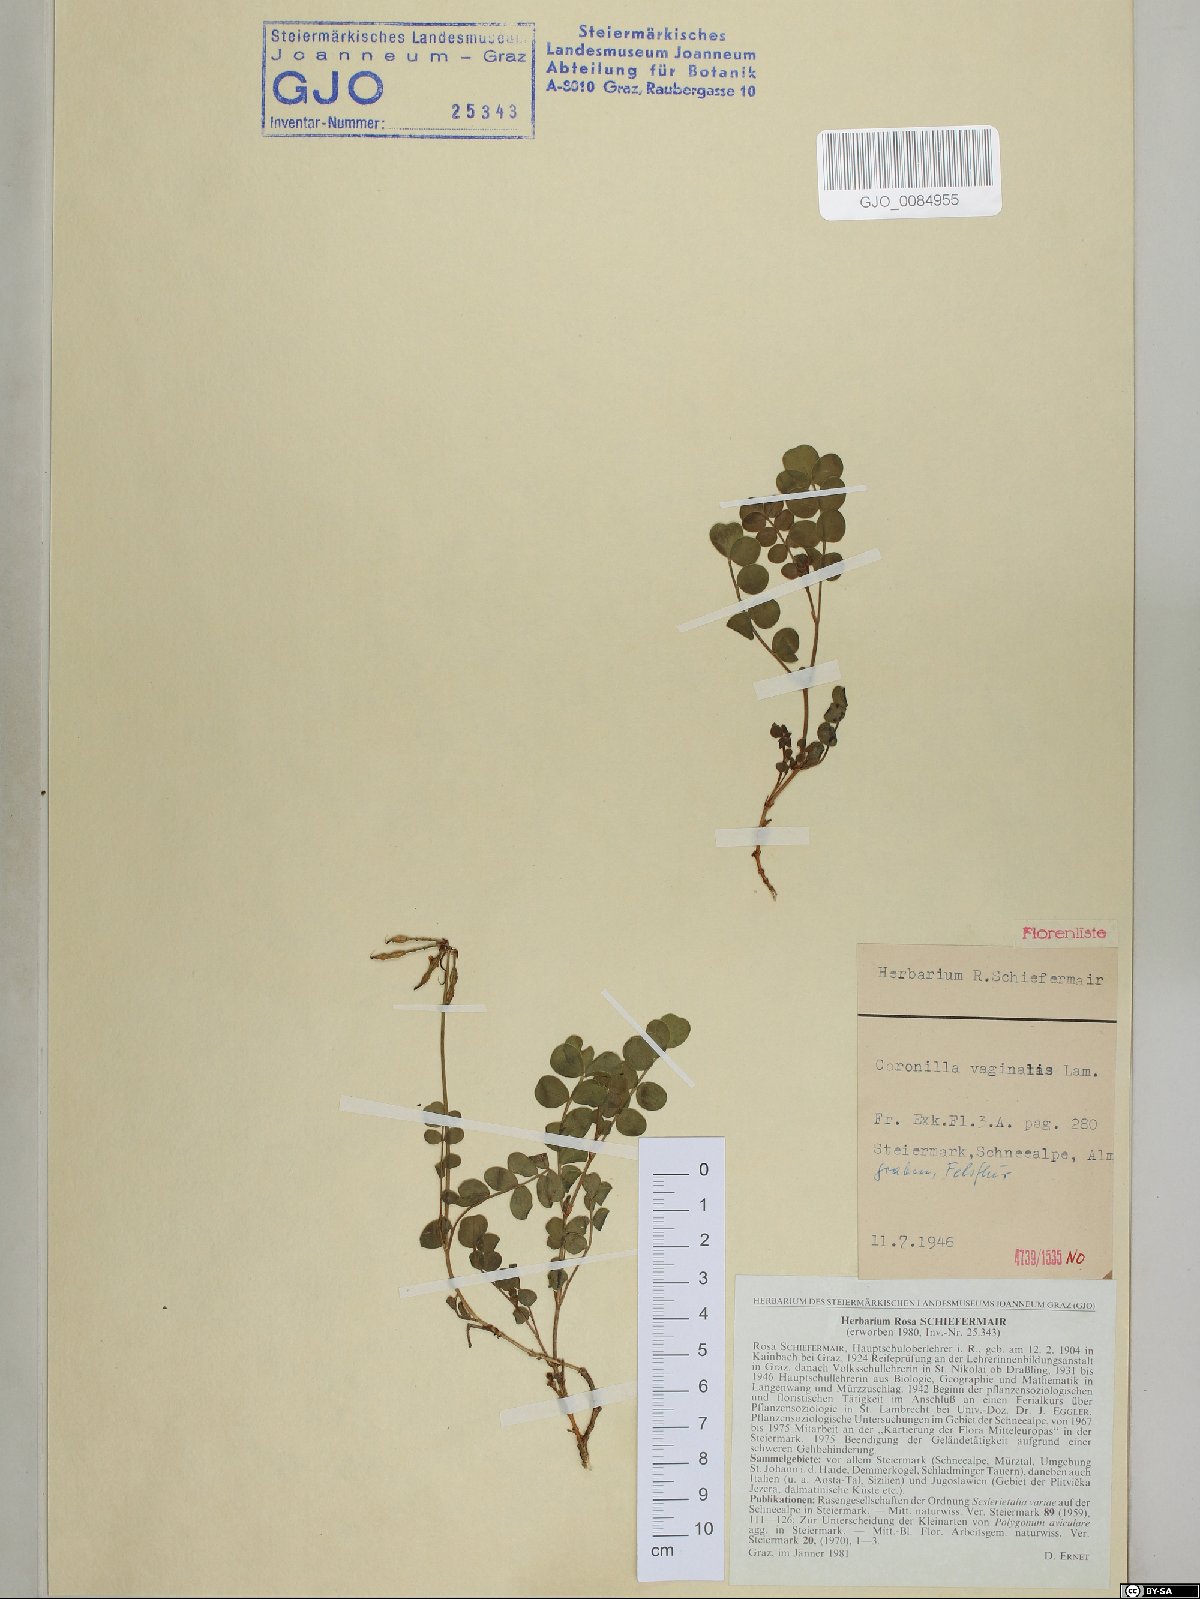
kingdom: Plantae
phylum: Tracheophyta
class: Magnoliopsida
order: Fabales
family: Fabaceae
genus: Coronilla
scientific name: Coronilla vaginalis
